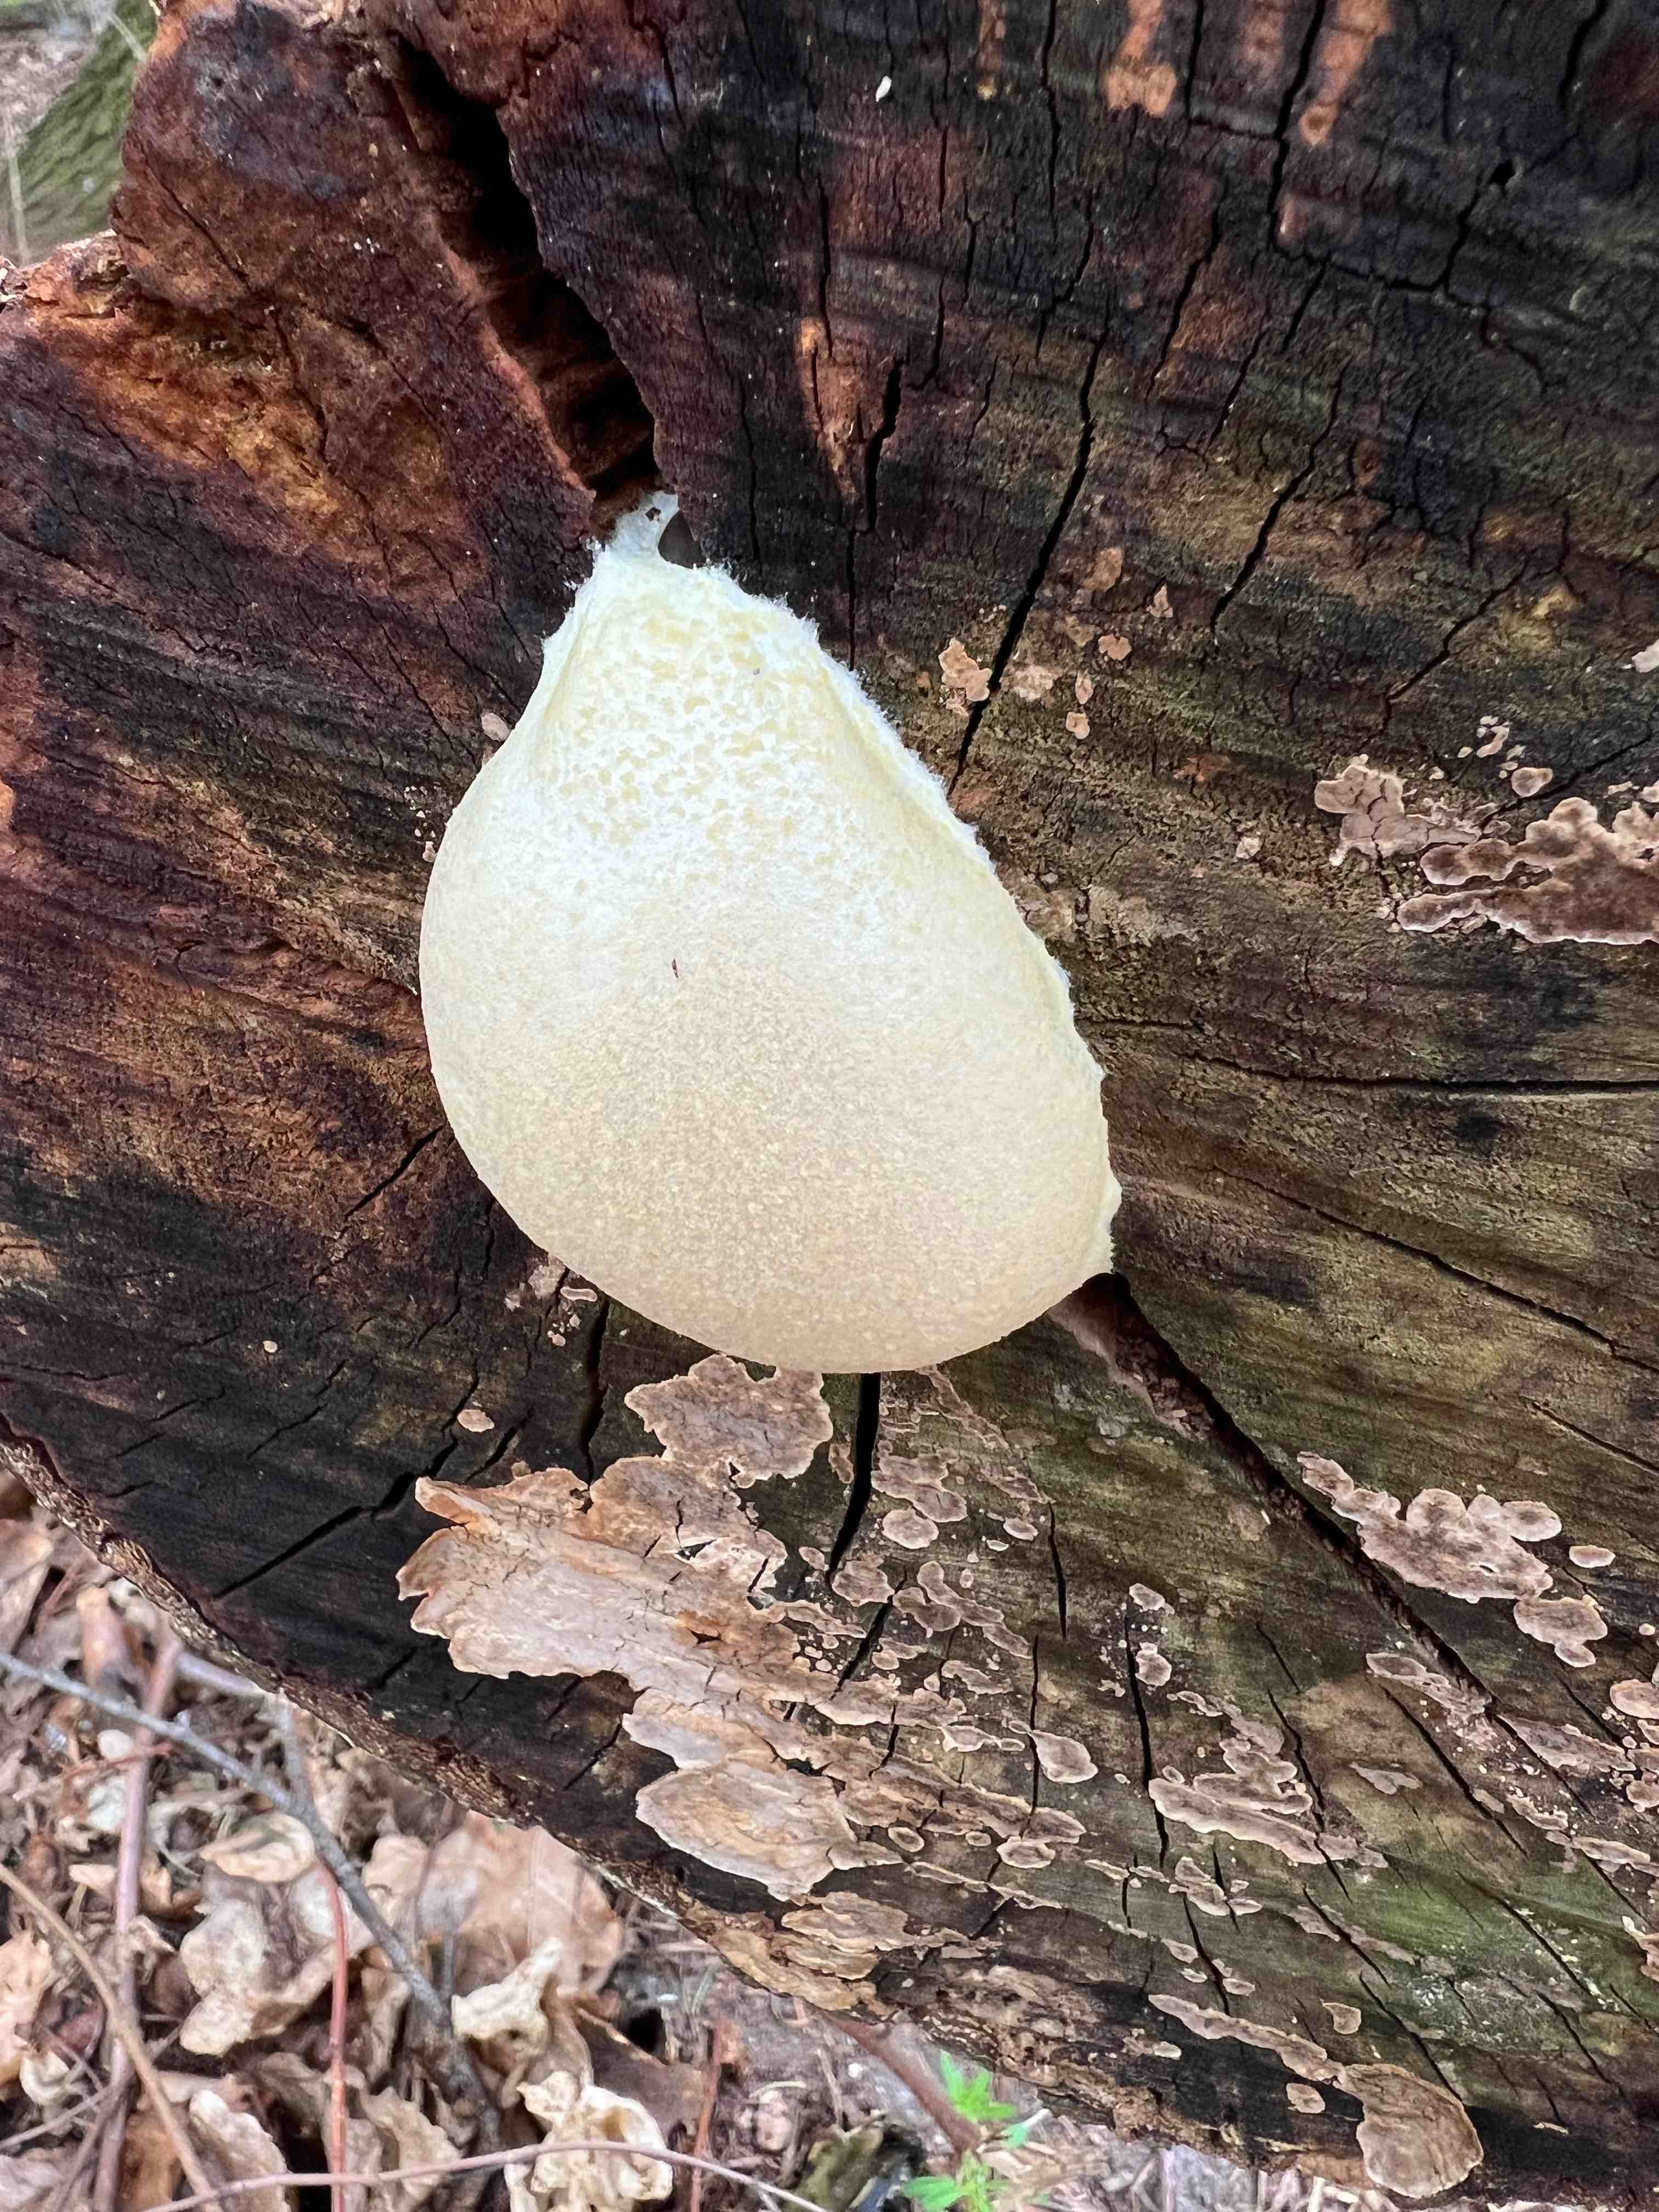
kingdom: Protozoa
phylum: Mycetozoa
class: Myxomycetes
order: Cribrariales
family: Tubiferaceae
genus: Reticularia
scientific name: Reticularia lycoperdon
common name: skinnende støvpude
